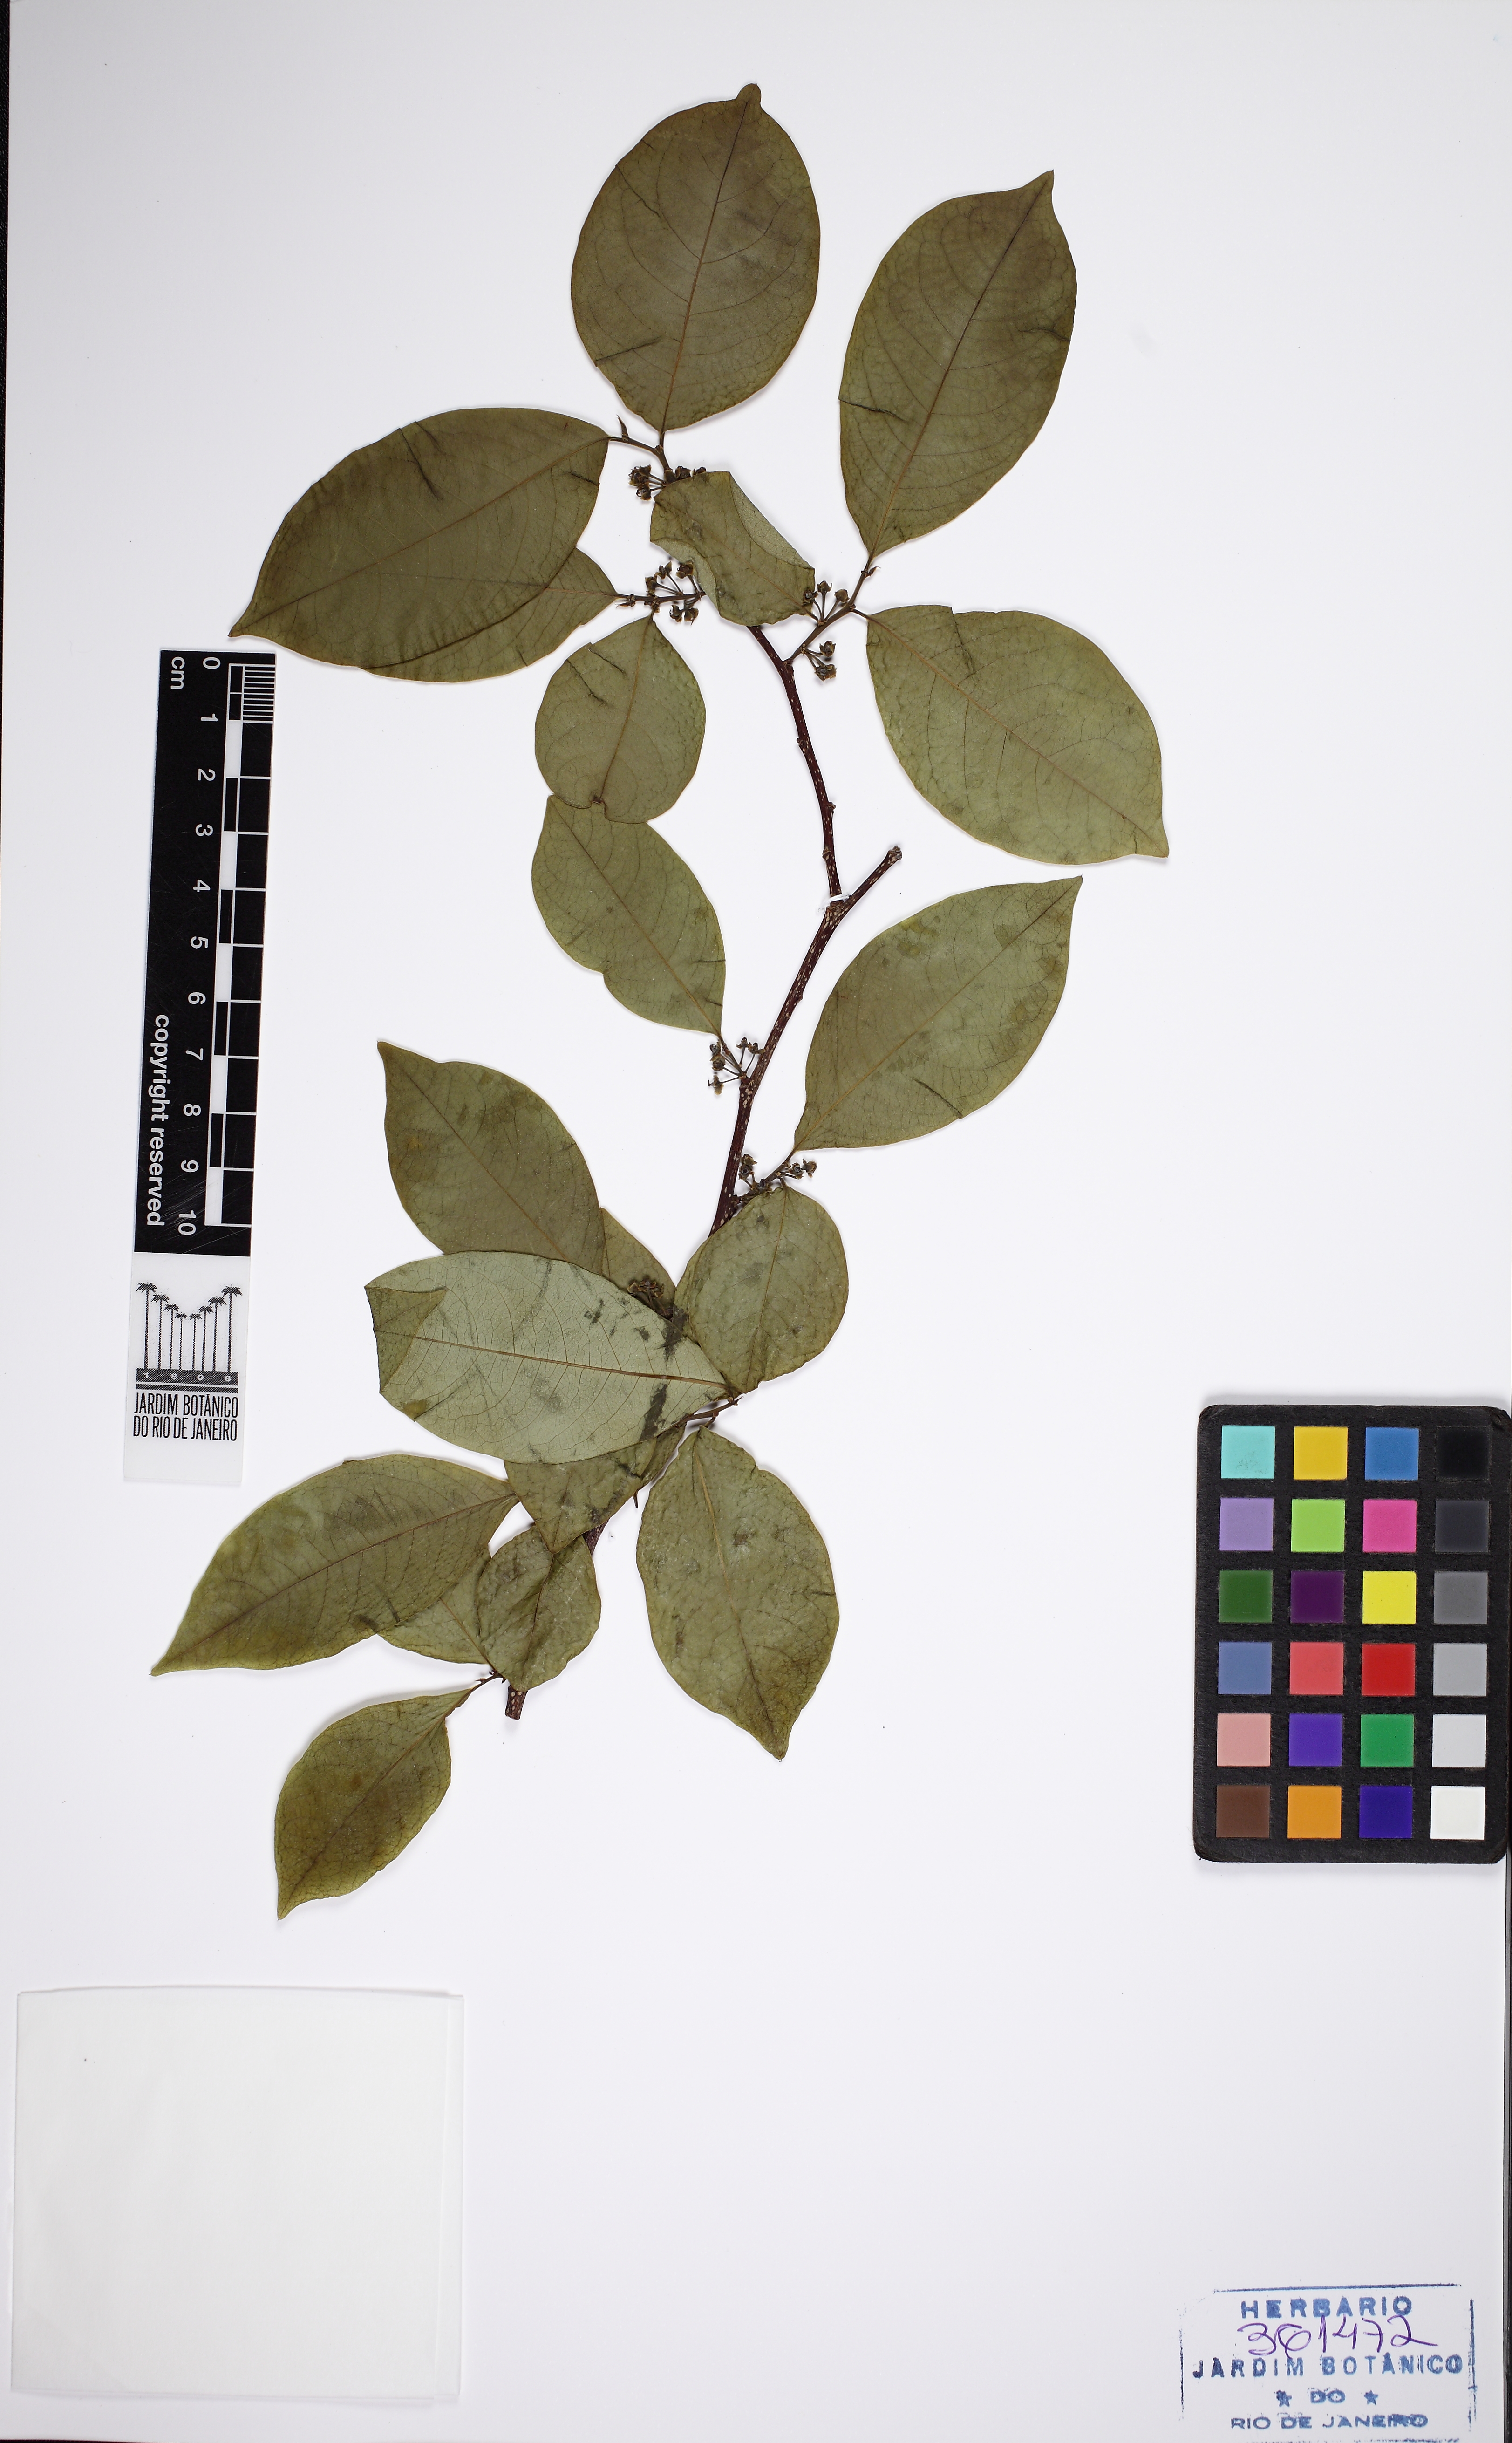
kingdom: Plantae
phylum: Tracheophyta
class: Magnoliopsida
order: Gentianales
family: Apocynaceae
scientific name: Apocynaceae
